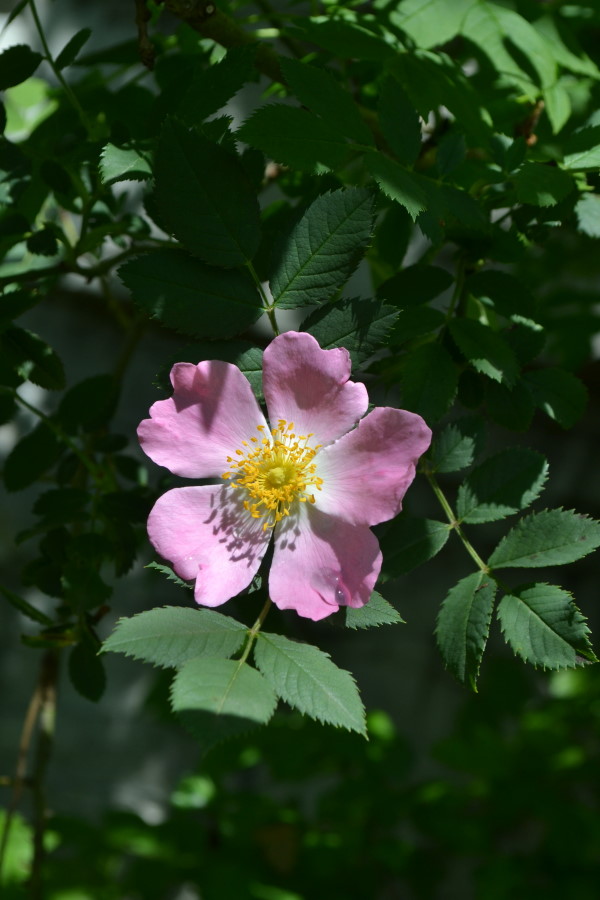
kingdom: Plantae
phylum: Tracheophyta
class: Magnoliopsida
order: Rosales
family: Rosaceae
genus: Rosa
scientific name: Rosa
